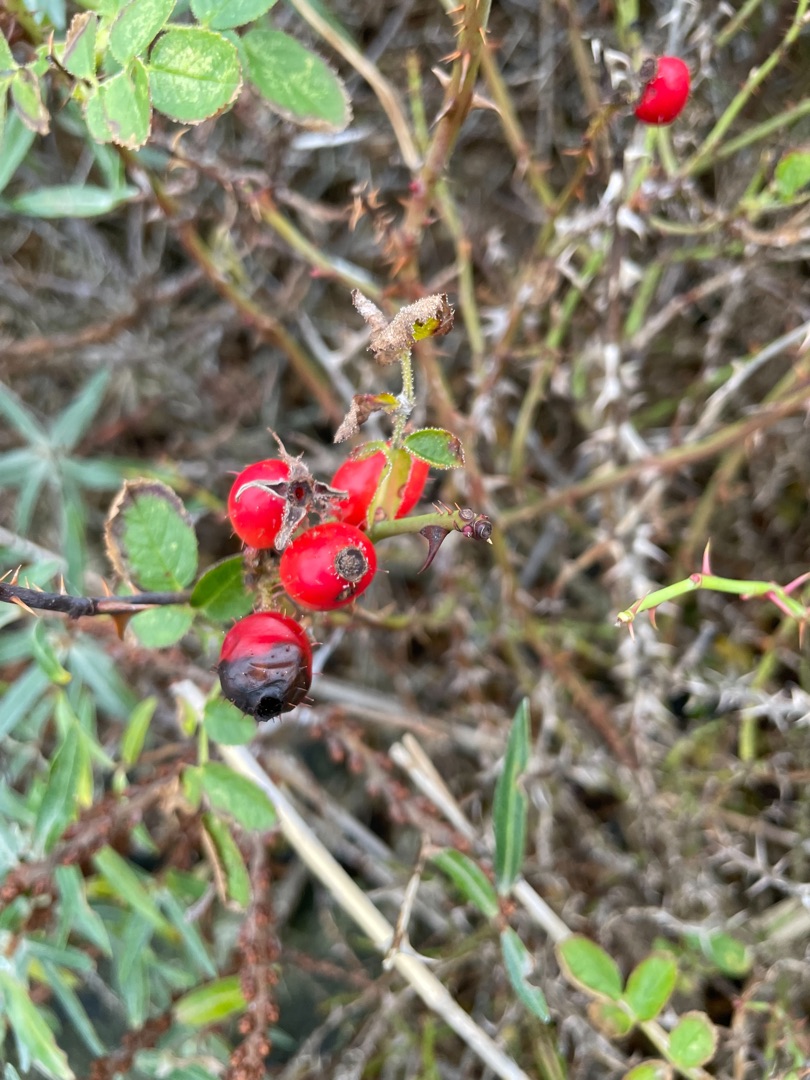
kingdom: Plantae
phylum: Tracheophyta
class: Magnoliopsida
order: Rosales
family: Rosaceae
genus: Rosa
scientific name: Rosa rubiginosa
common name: Æble-rose
